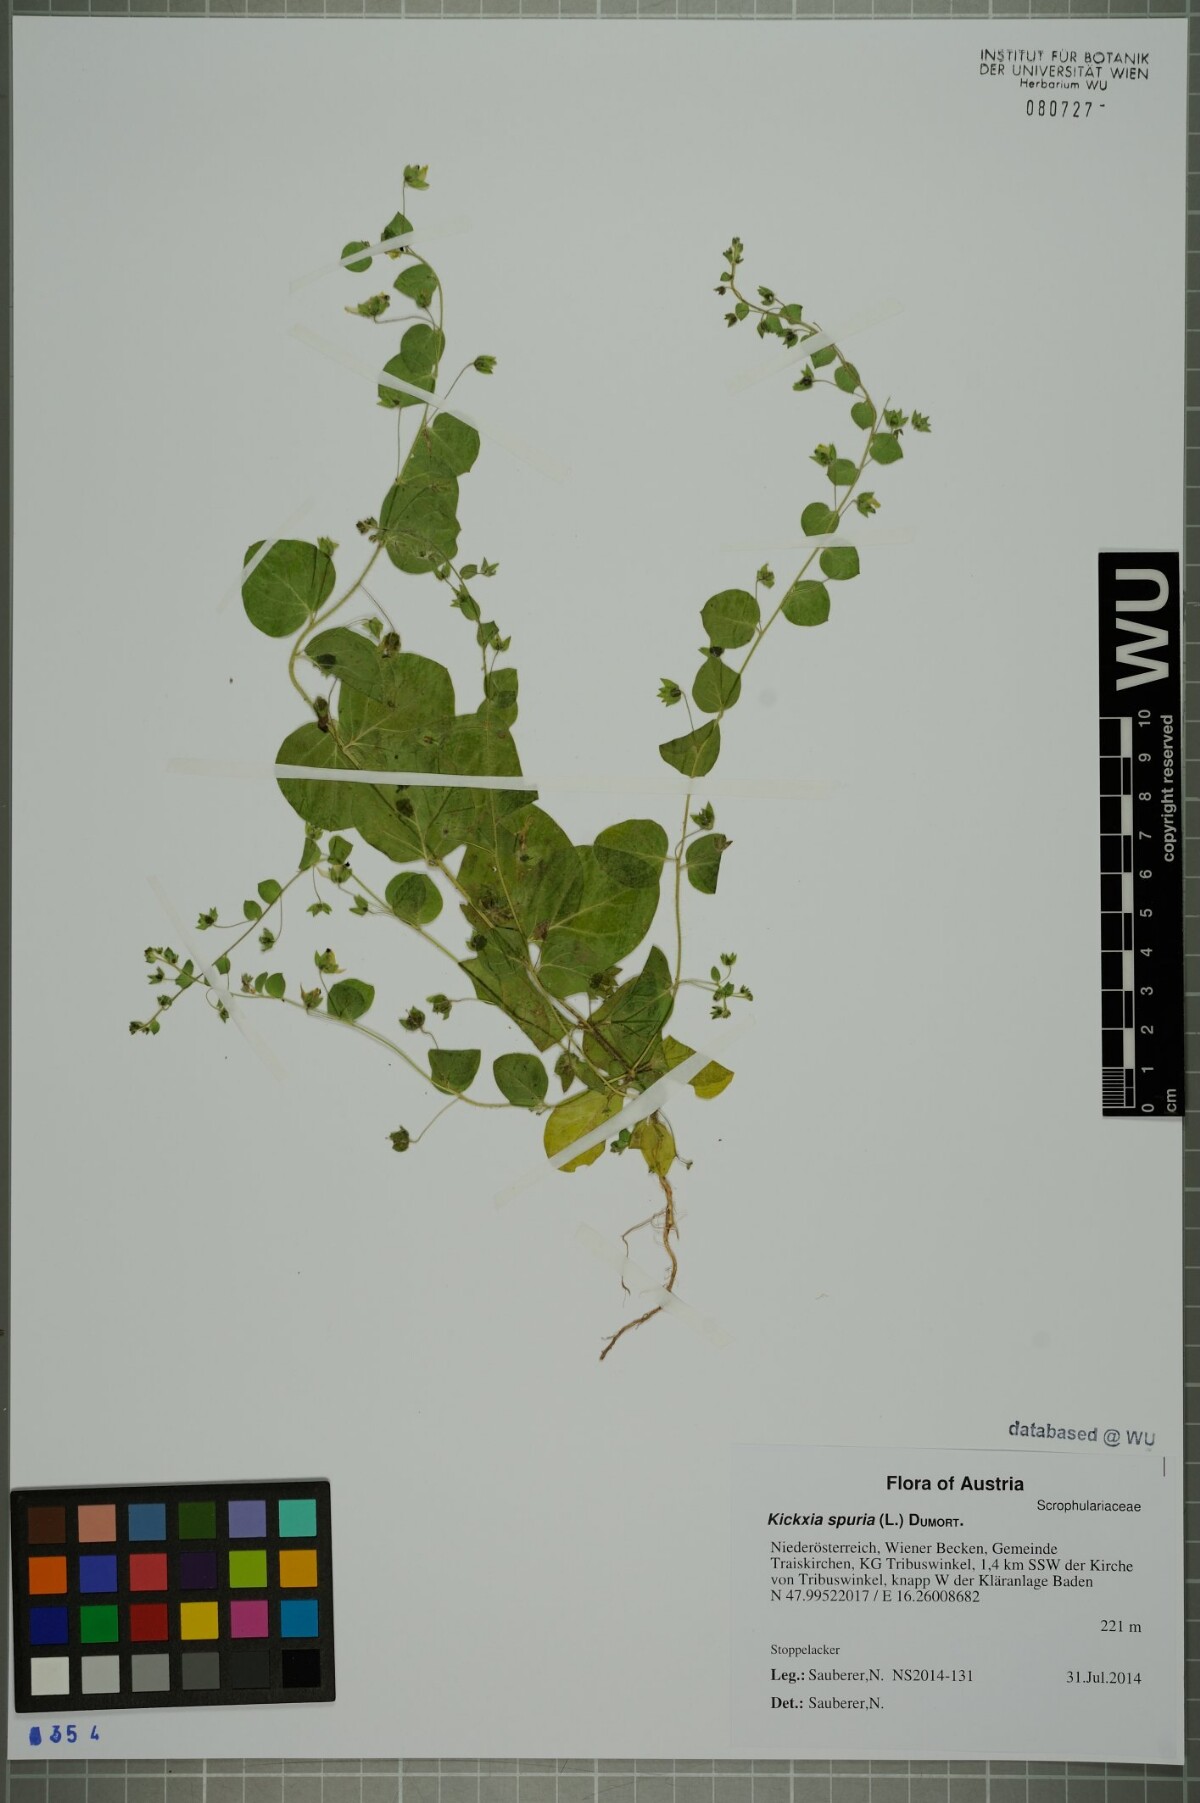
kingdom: Plantae
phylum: Tracheophyta
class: Magnoliopsida
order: Lamiales
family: Plantaginaceae
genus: Kickxia
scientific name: Kickxia spuria
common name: Round-leaved fluellen
